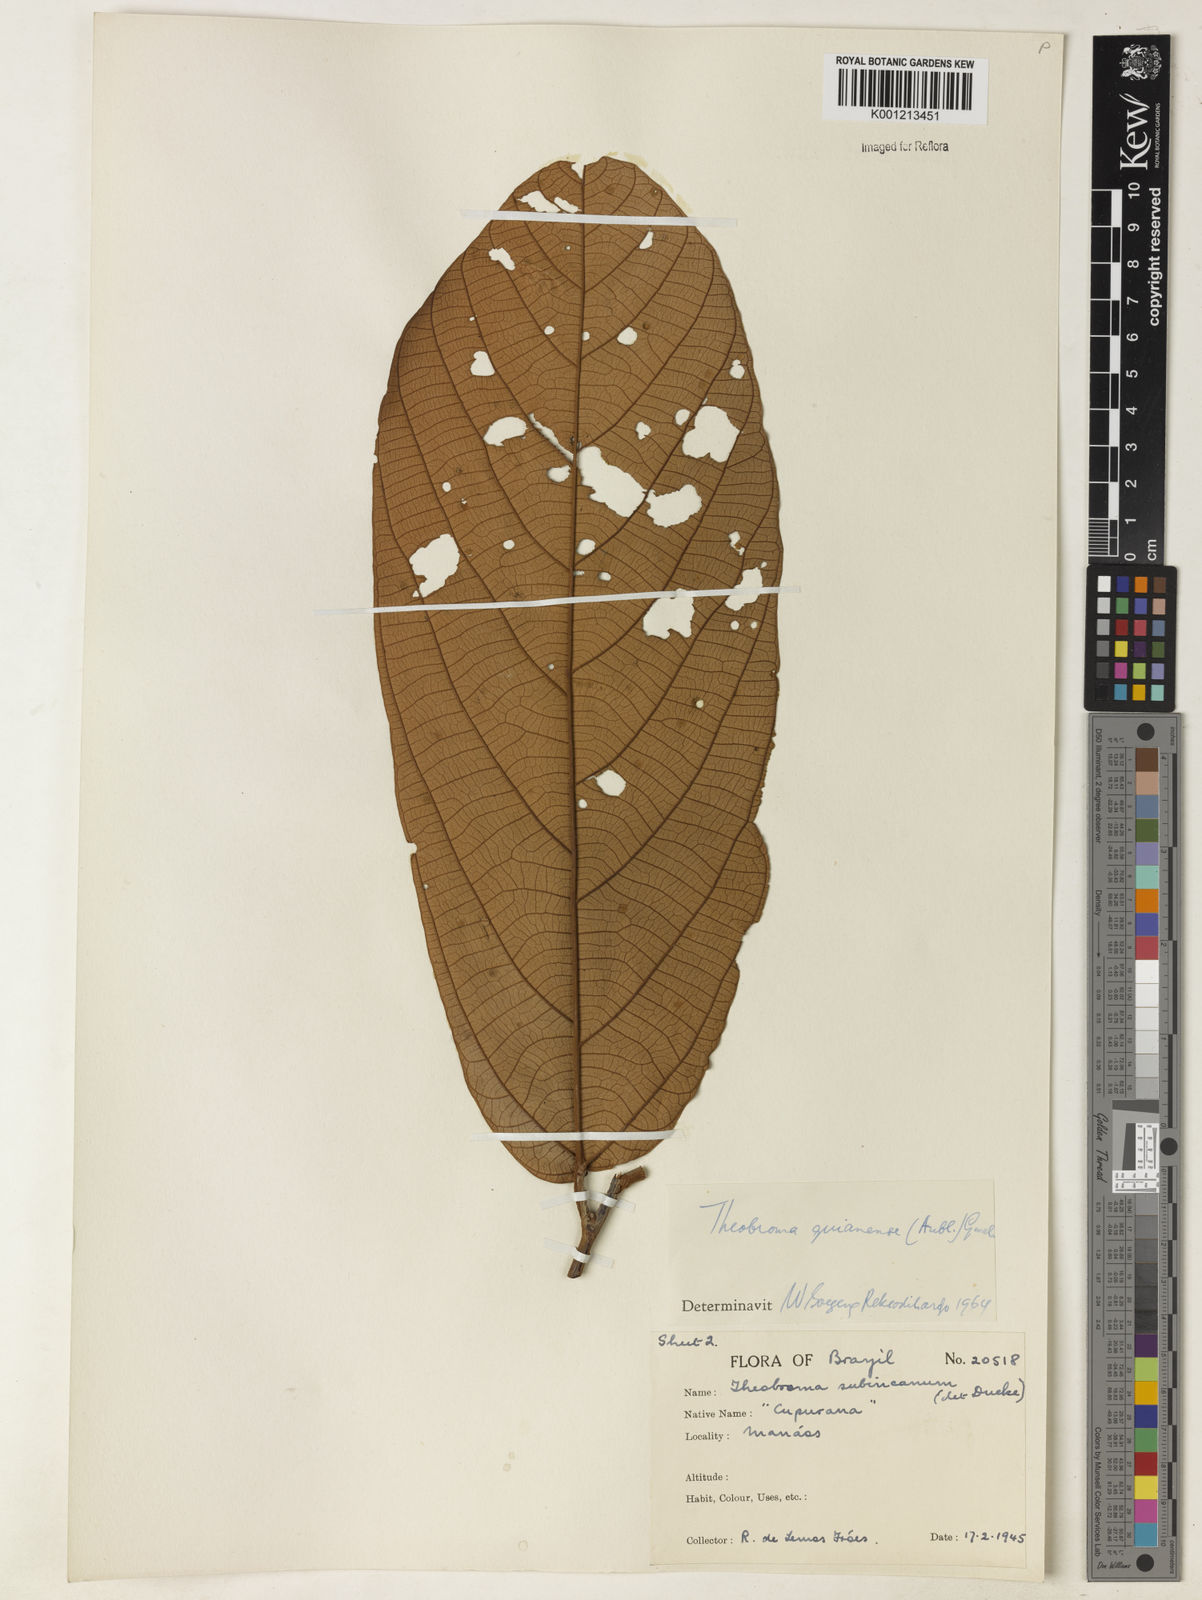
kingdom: Plantae
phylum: Tracheophyta
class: Magnoliopsida
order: Malvales
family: Malvaceae
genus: Theobroma
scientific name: Theobroma subincanum
